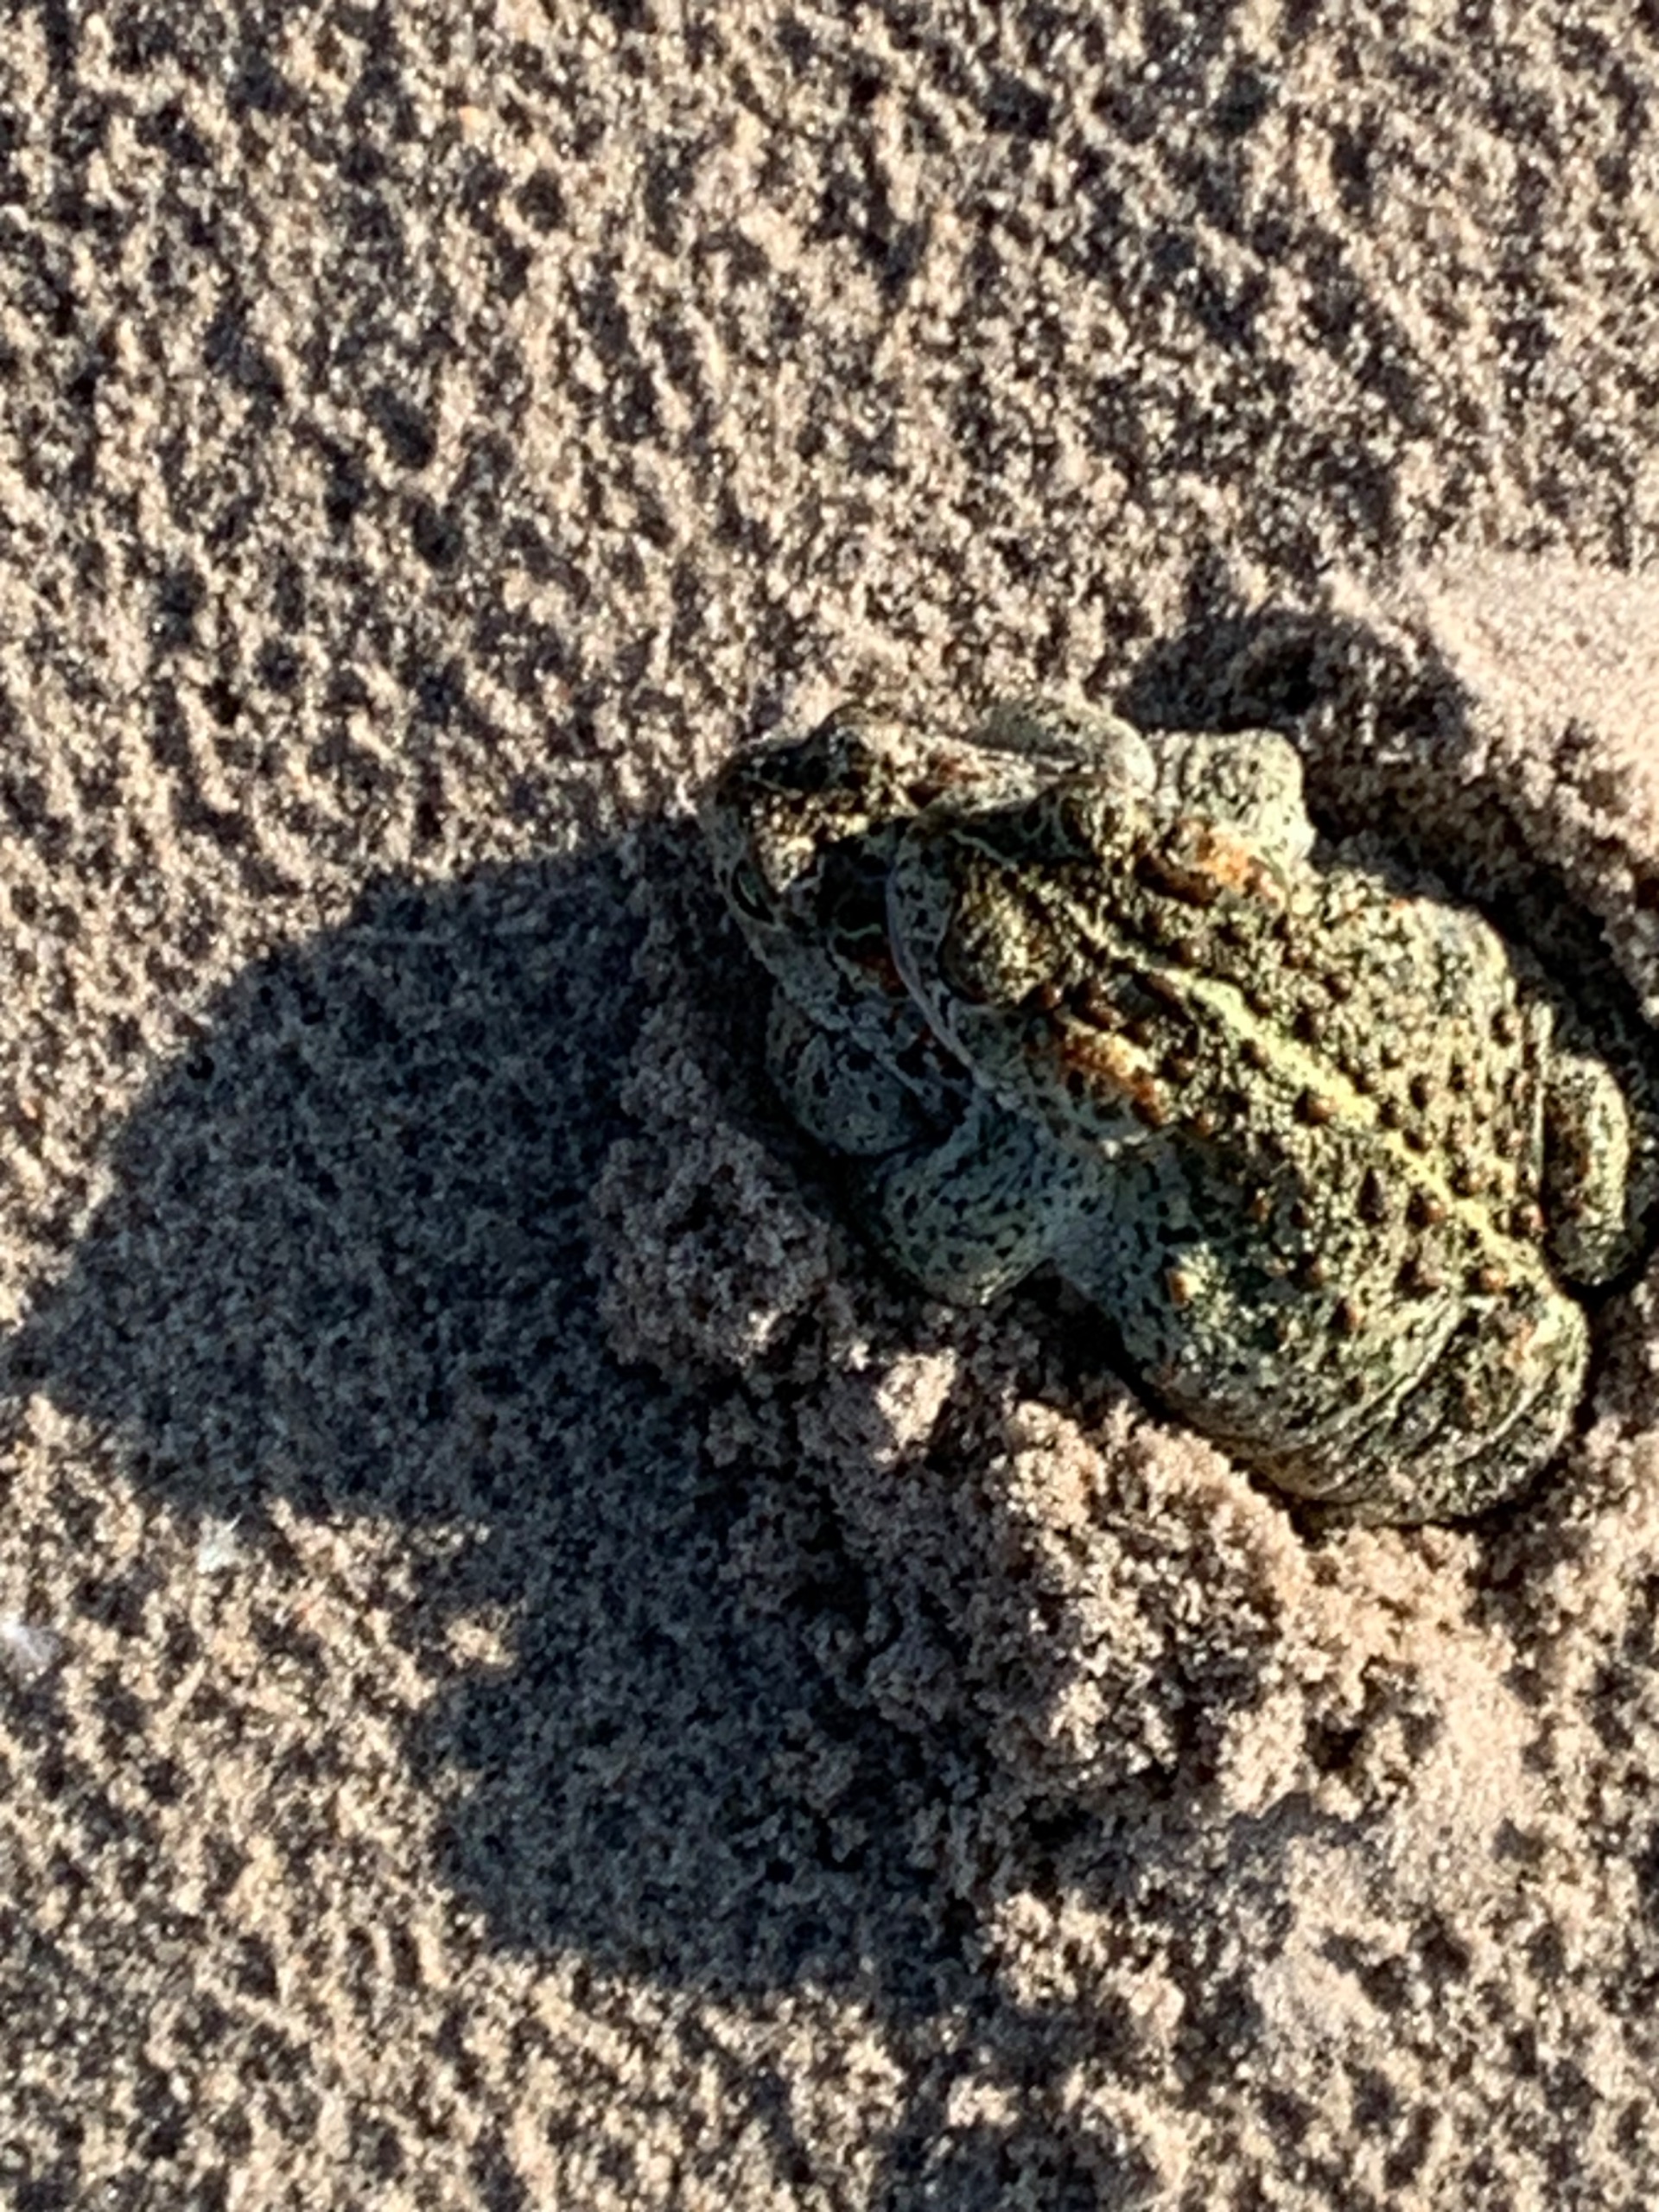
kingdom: Animalia
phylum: Chordata
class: Amphibia
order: Anura
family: Bufonidae
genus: Epidalea
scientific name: Epidalea calamita
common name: Strandtudse
